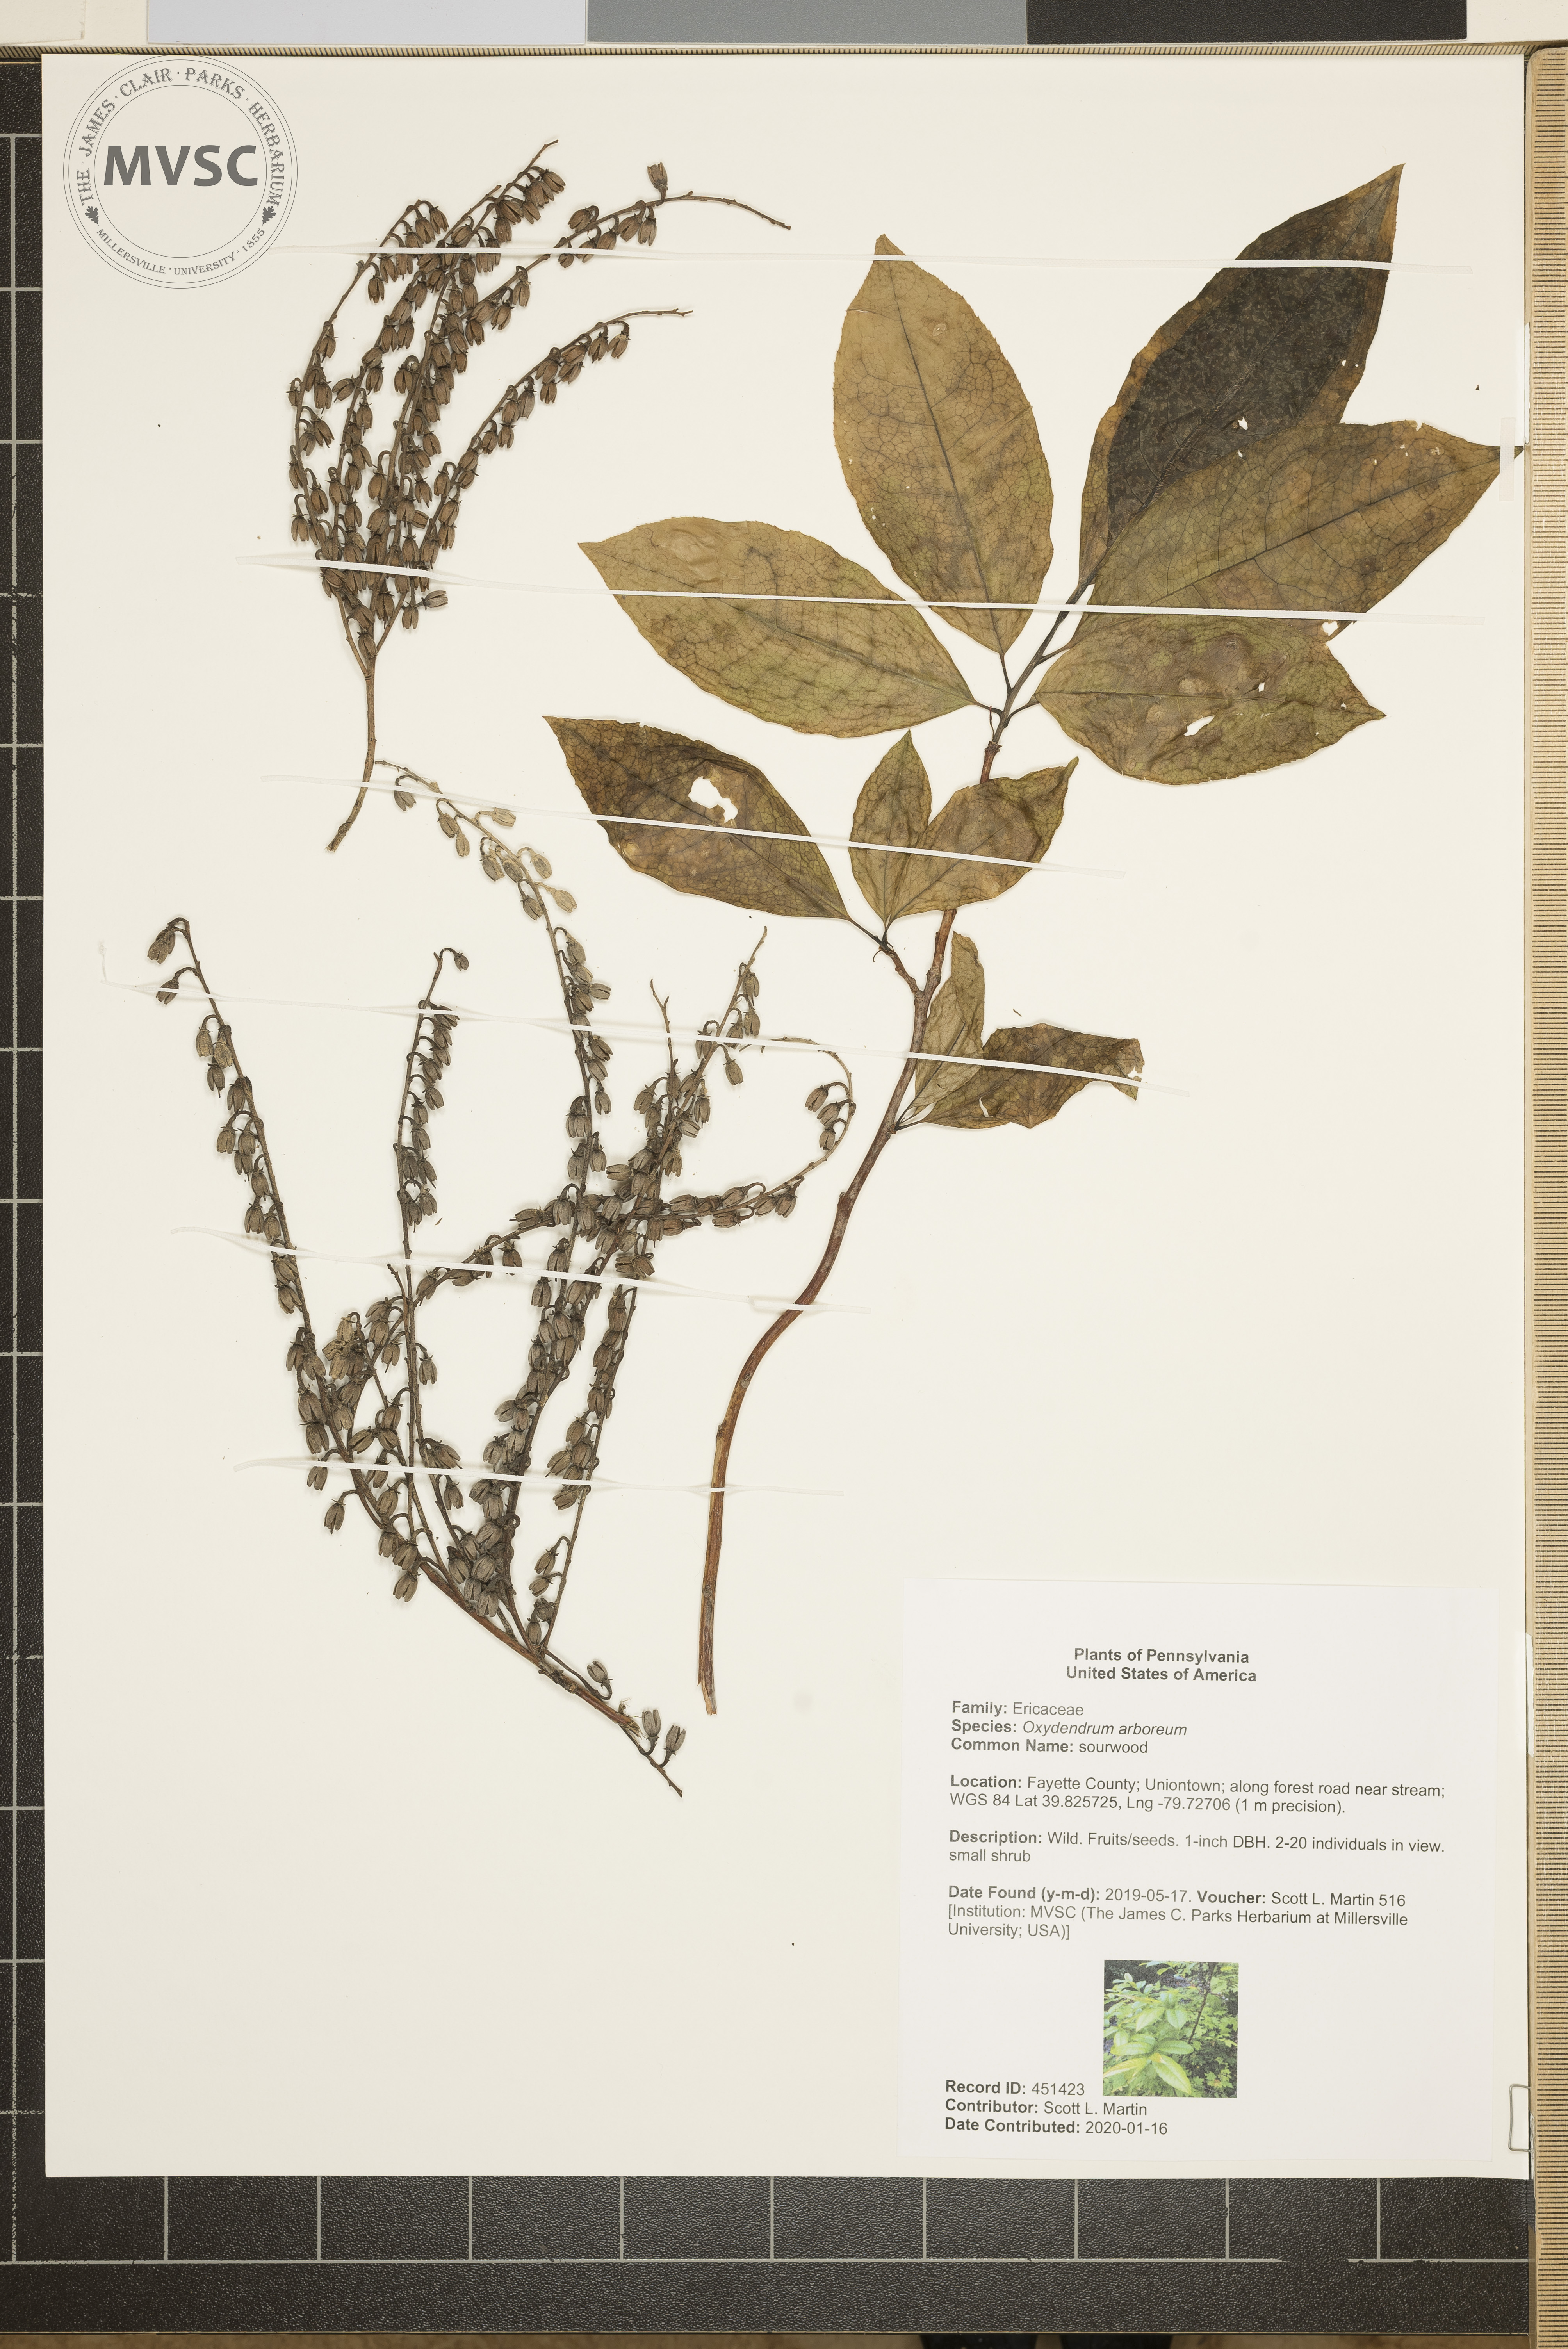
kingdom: Plantae
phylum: Tracheophyta
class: Magnoliopsida
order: Ericales
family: Ericaceae
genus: Oxydendrum
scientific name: Oxydendrum arboreum
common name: sourwood
